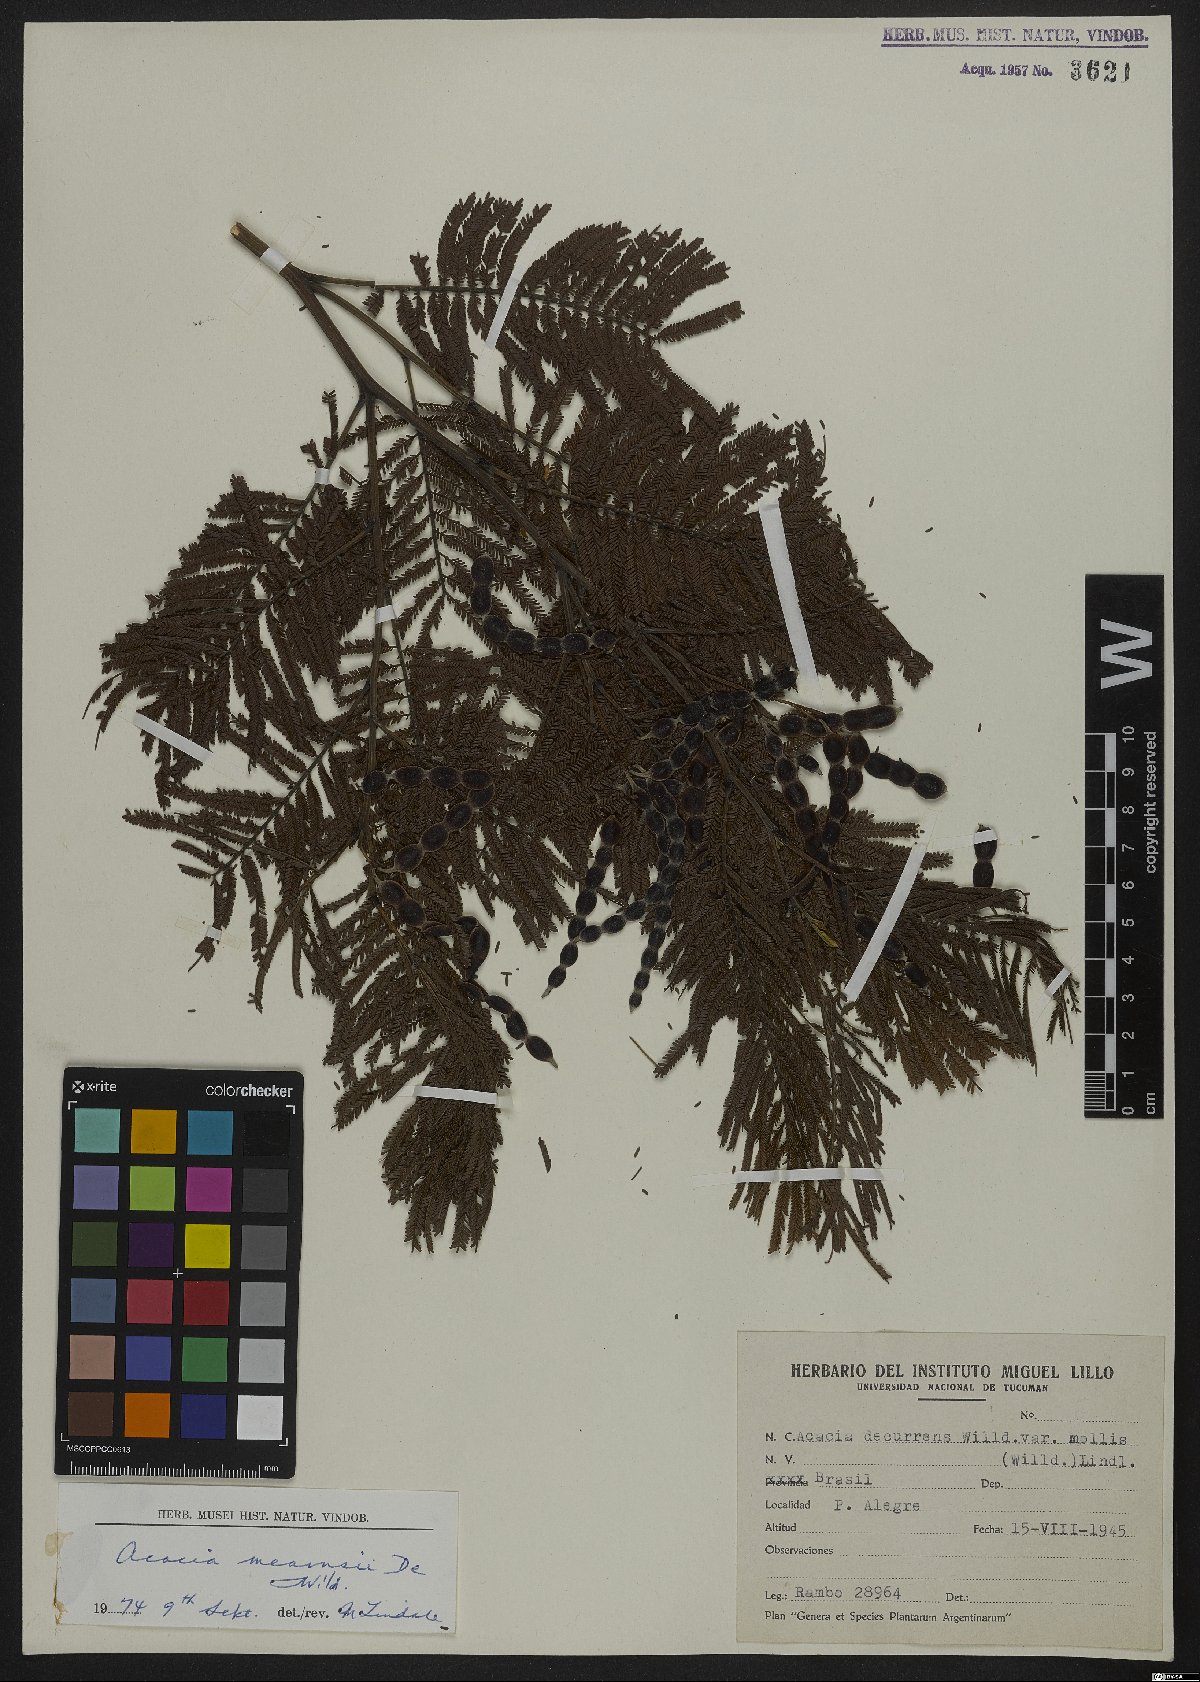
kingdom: Plantae
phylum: Tracheophyta
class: Magnoliopsida
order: Fabales
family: Fabaceae
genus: Acacia
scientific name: Acacia mearnsii
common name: Black wattle
